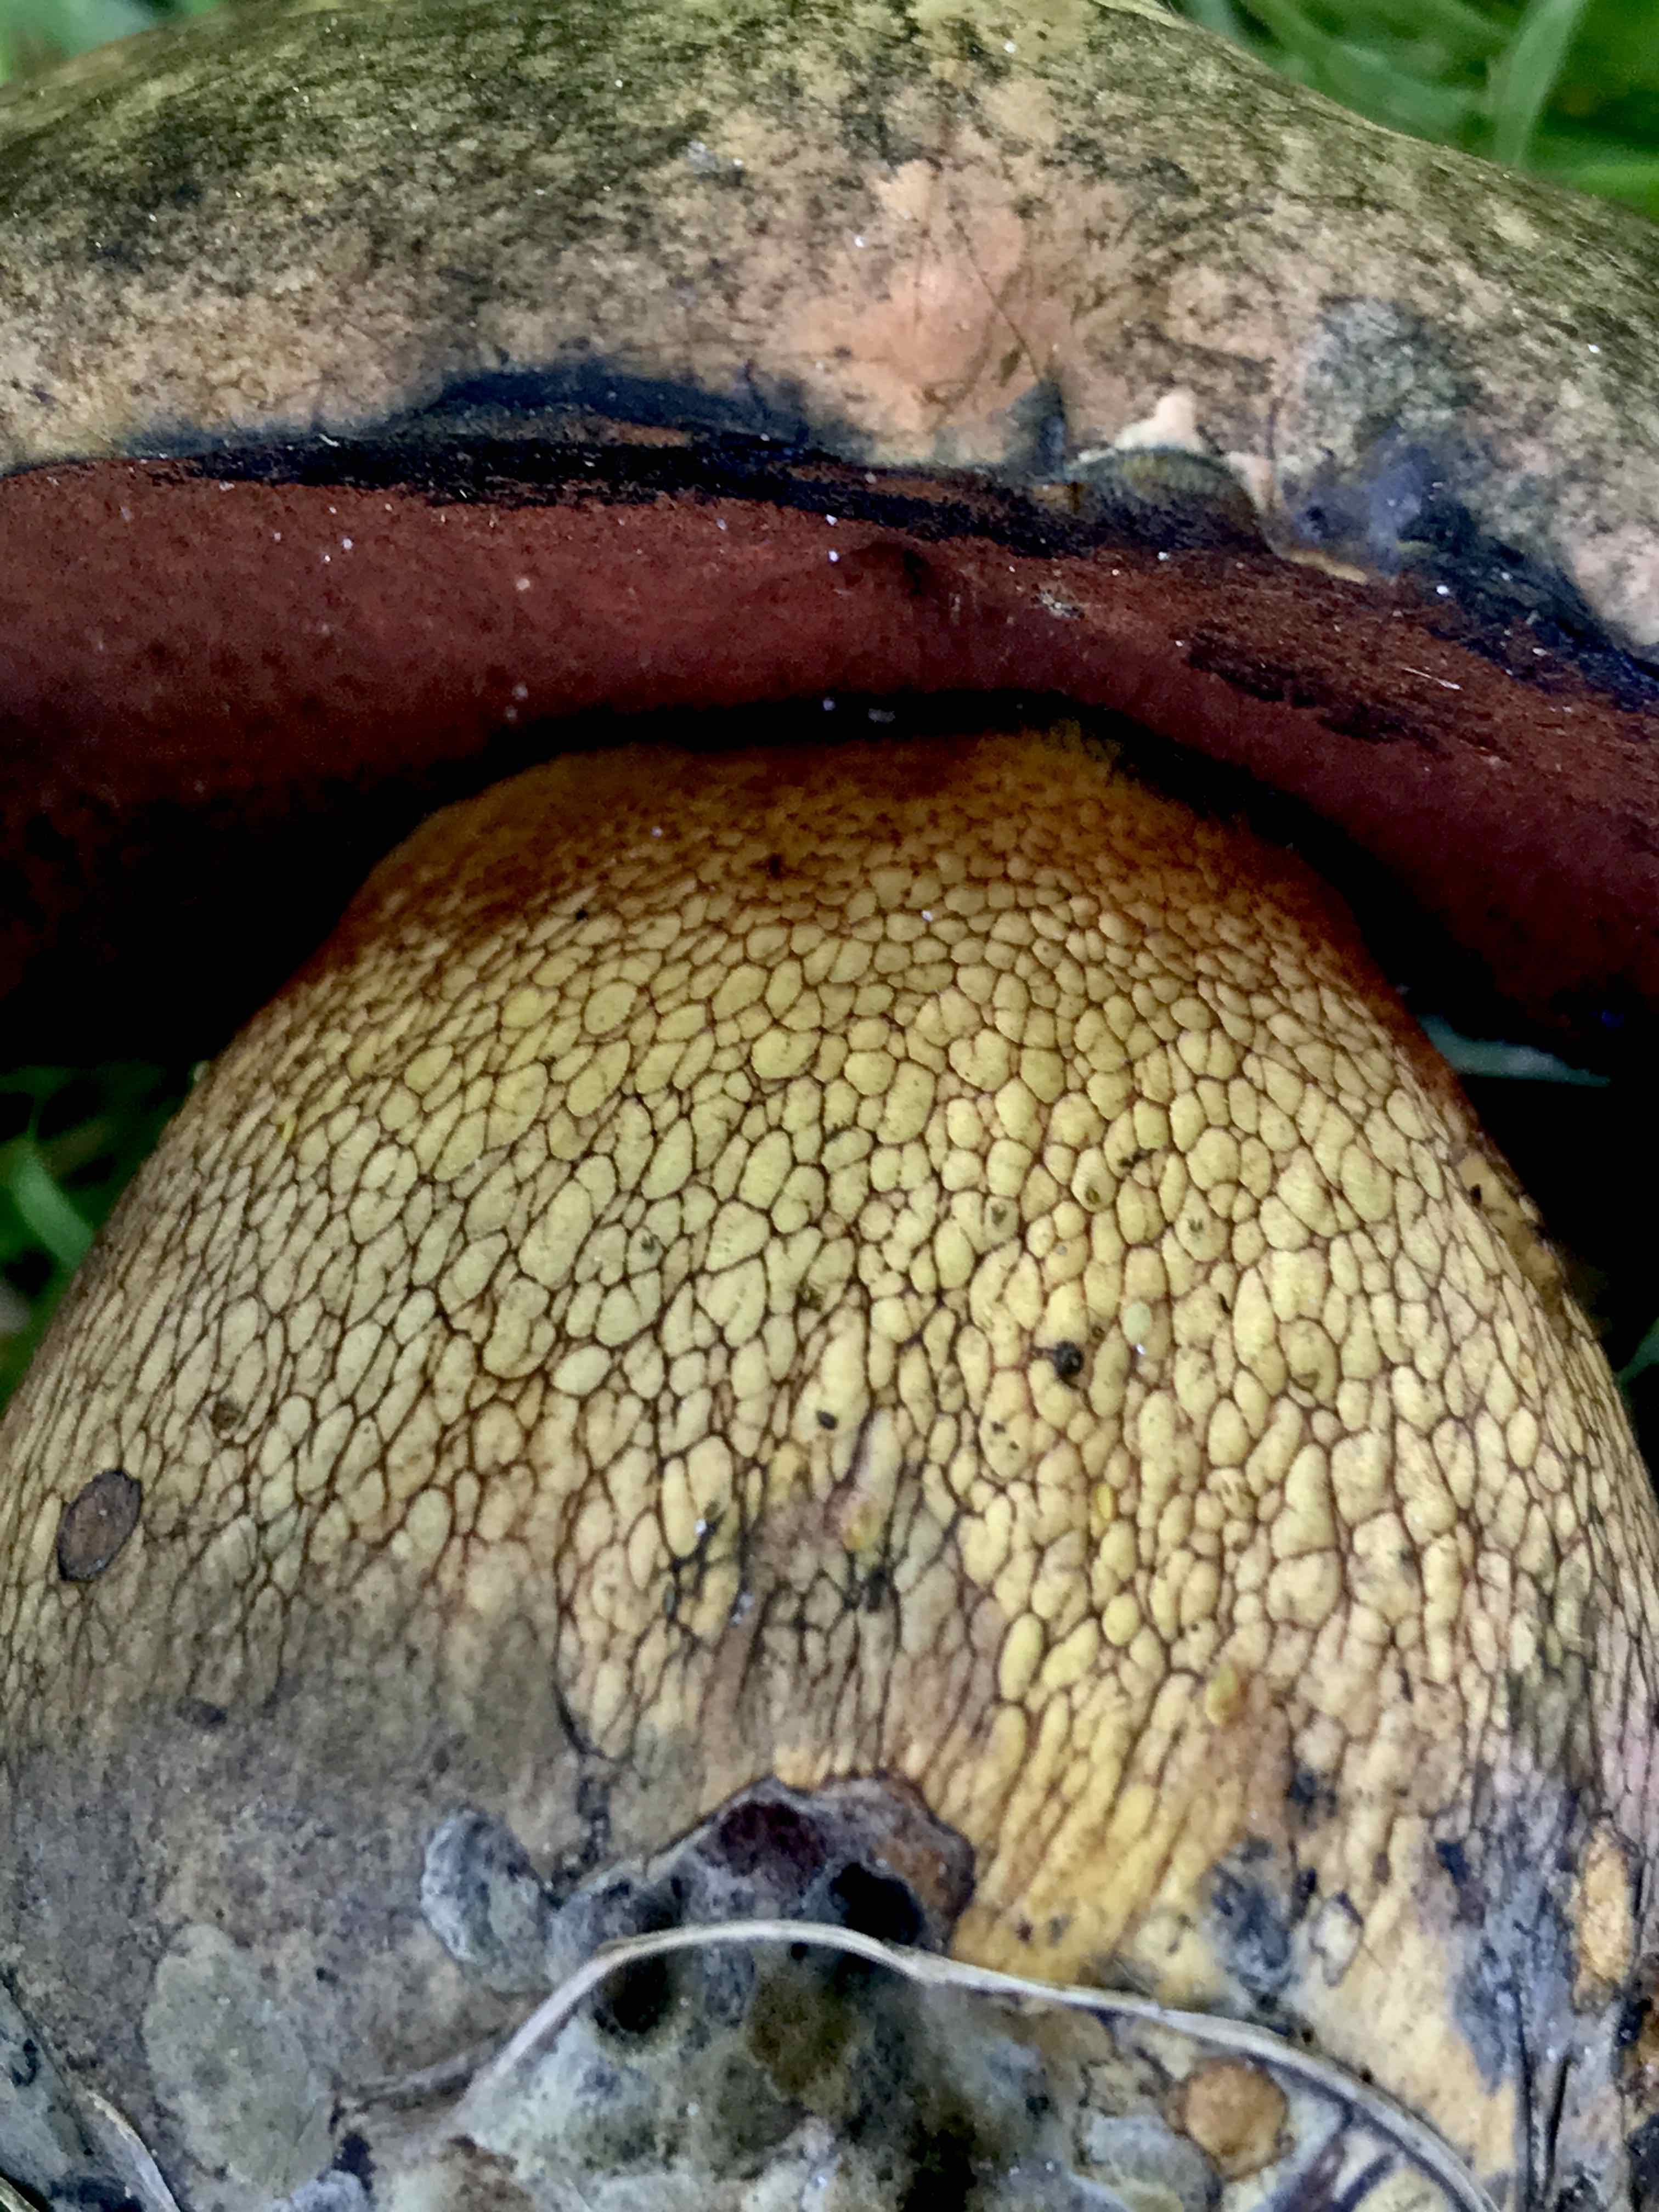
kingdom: Fungi
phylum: Basidiomycota
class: Agaricomycetes
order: Boletales
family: Boletaceae
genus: Suillellus
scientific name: Suillellus luridus
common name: netstokket indigorørhat
